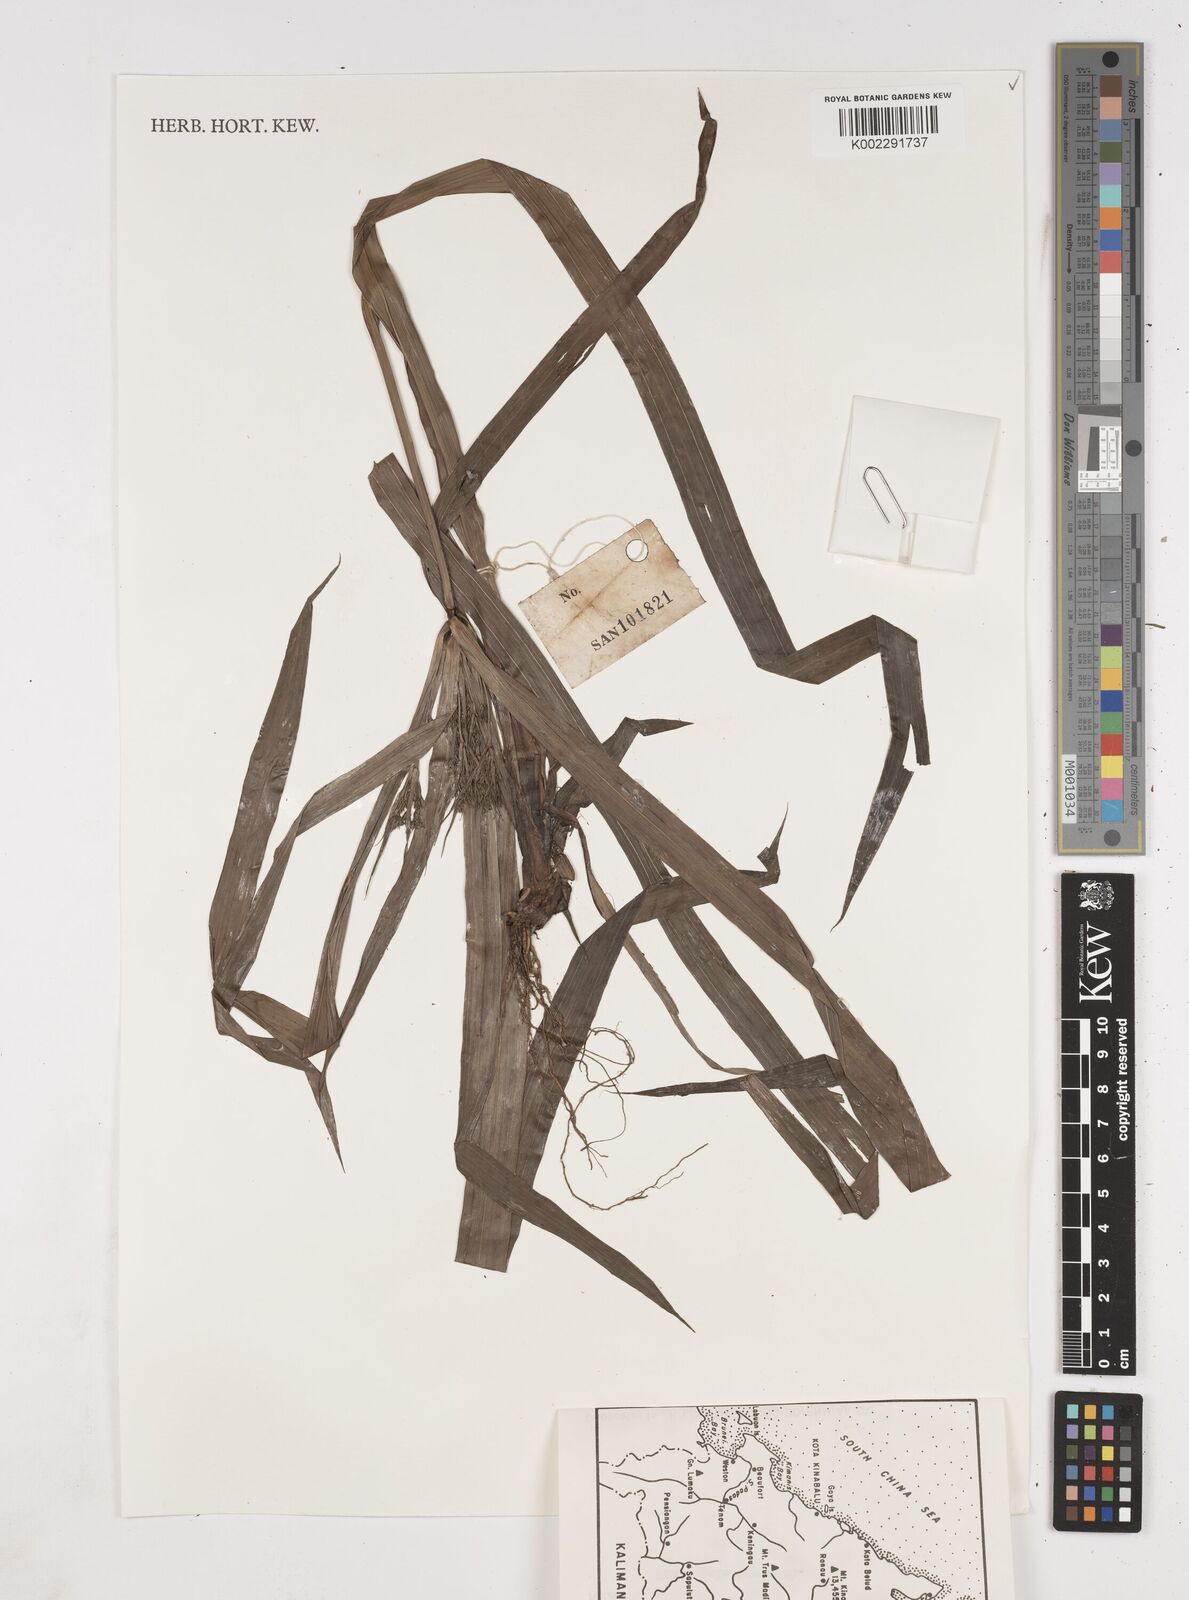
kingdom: Plantae
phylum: Tracheophyta
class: Liliopsida
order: Poales
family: Cyperaceae
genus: Cyperus
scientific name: Cyperus diffusus
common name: Dwarf umbrella grass
